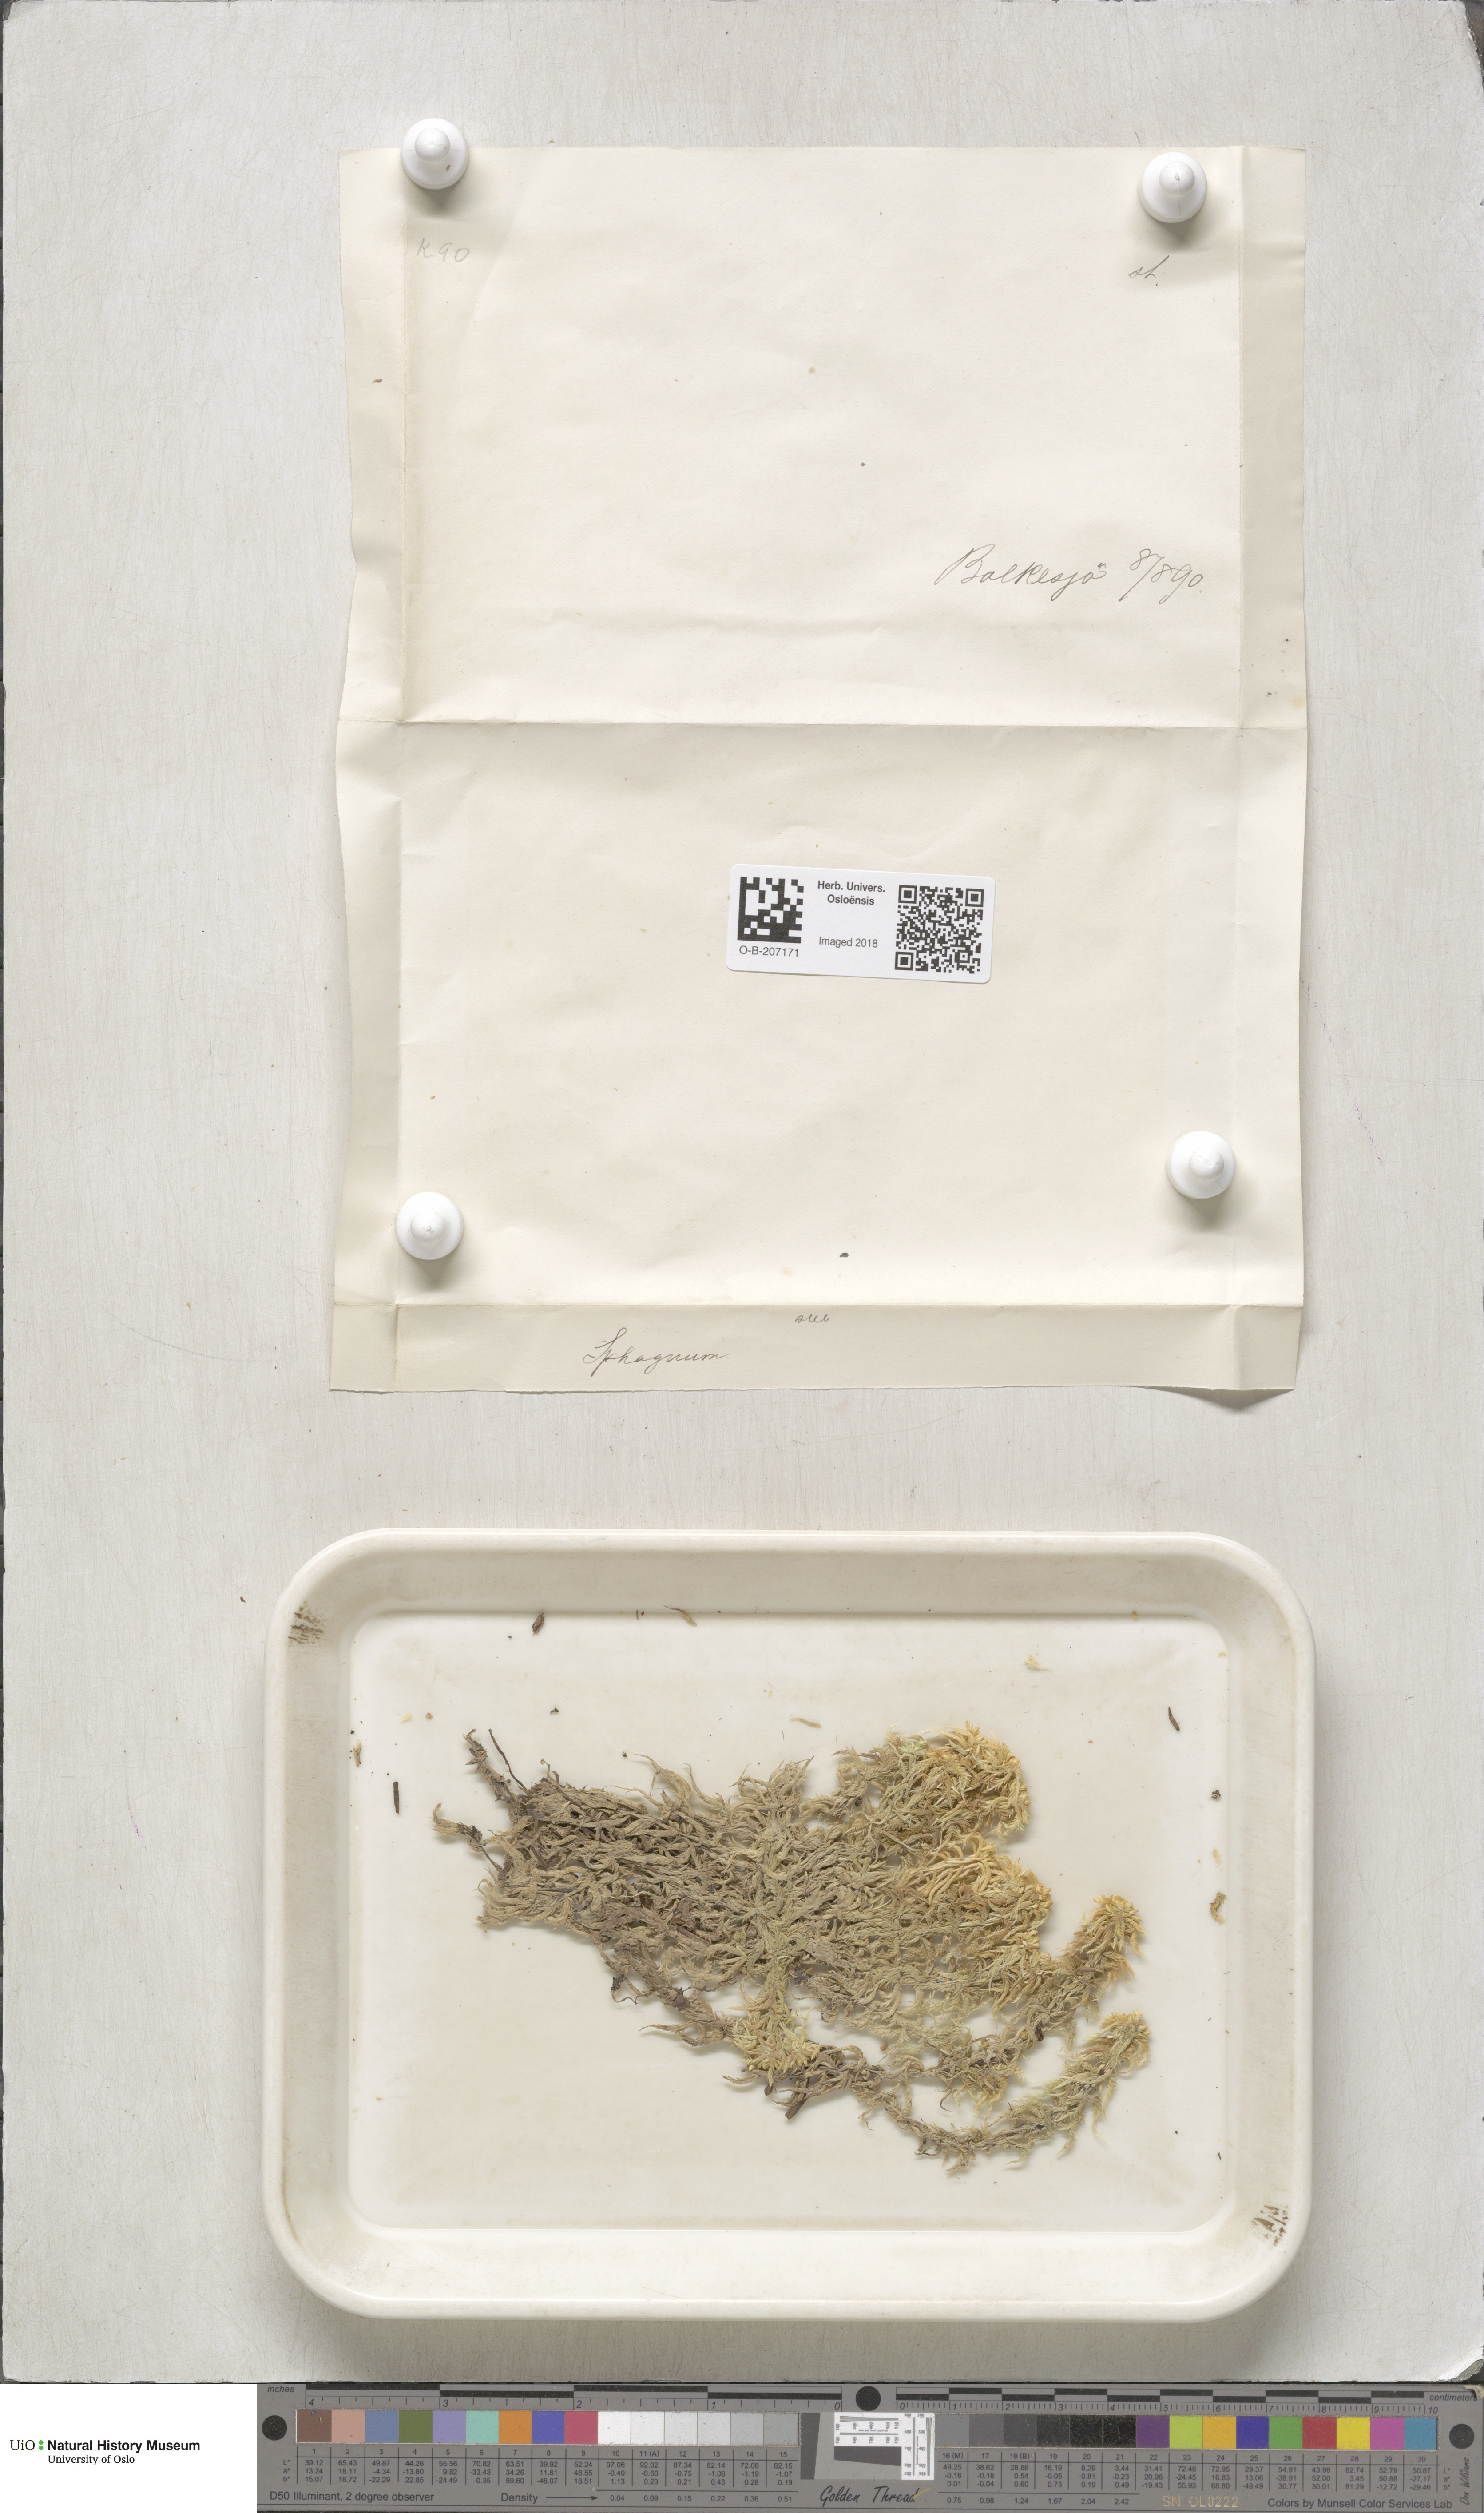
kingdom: Plantae
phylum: Bryophyta
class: Sphagnopsida
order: Sphagnales
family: Sphagnaceae
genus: Sphagnum
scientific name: Sphagnum subsecundum
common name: Orange peat moss
